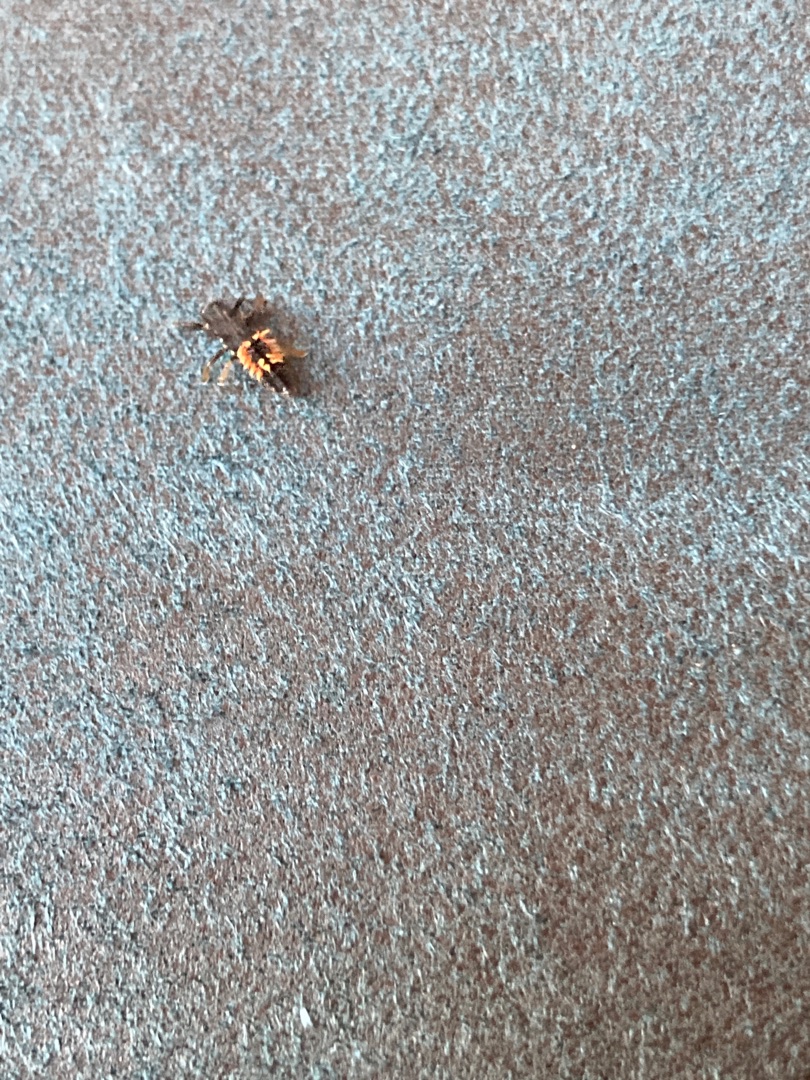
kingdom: Animalia
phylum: Arthropoda
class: Insecta
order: Coleoptera
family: Coccinellidae
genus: Harmonia
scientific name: Harmonia axyridis
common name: Harlekinmariehøne
